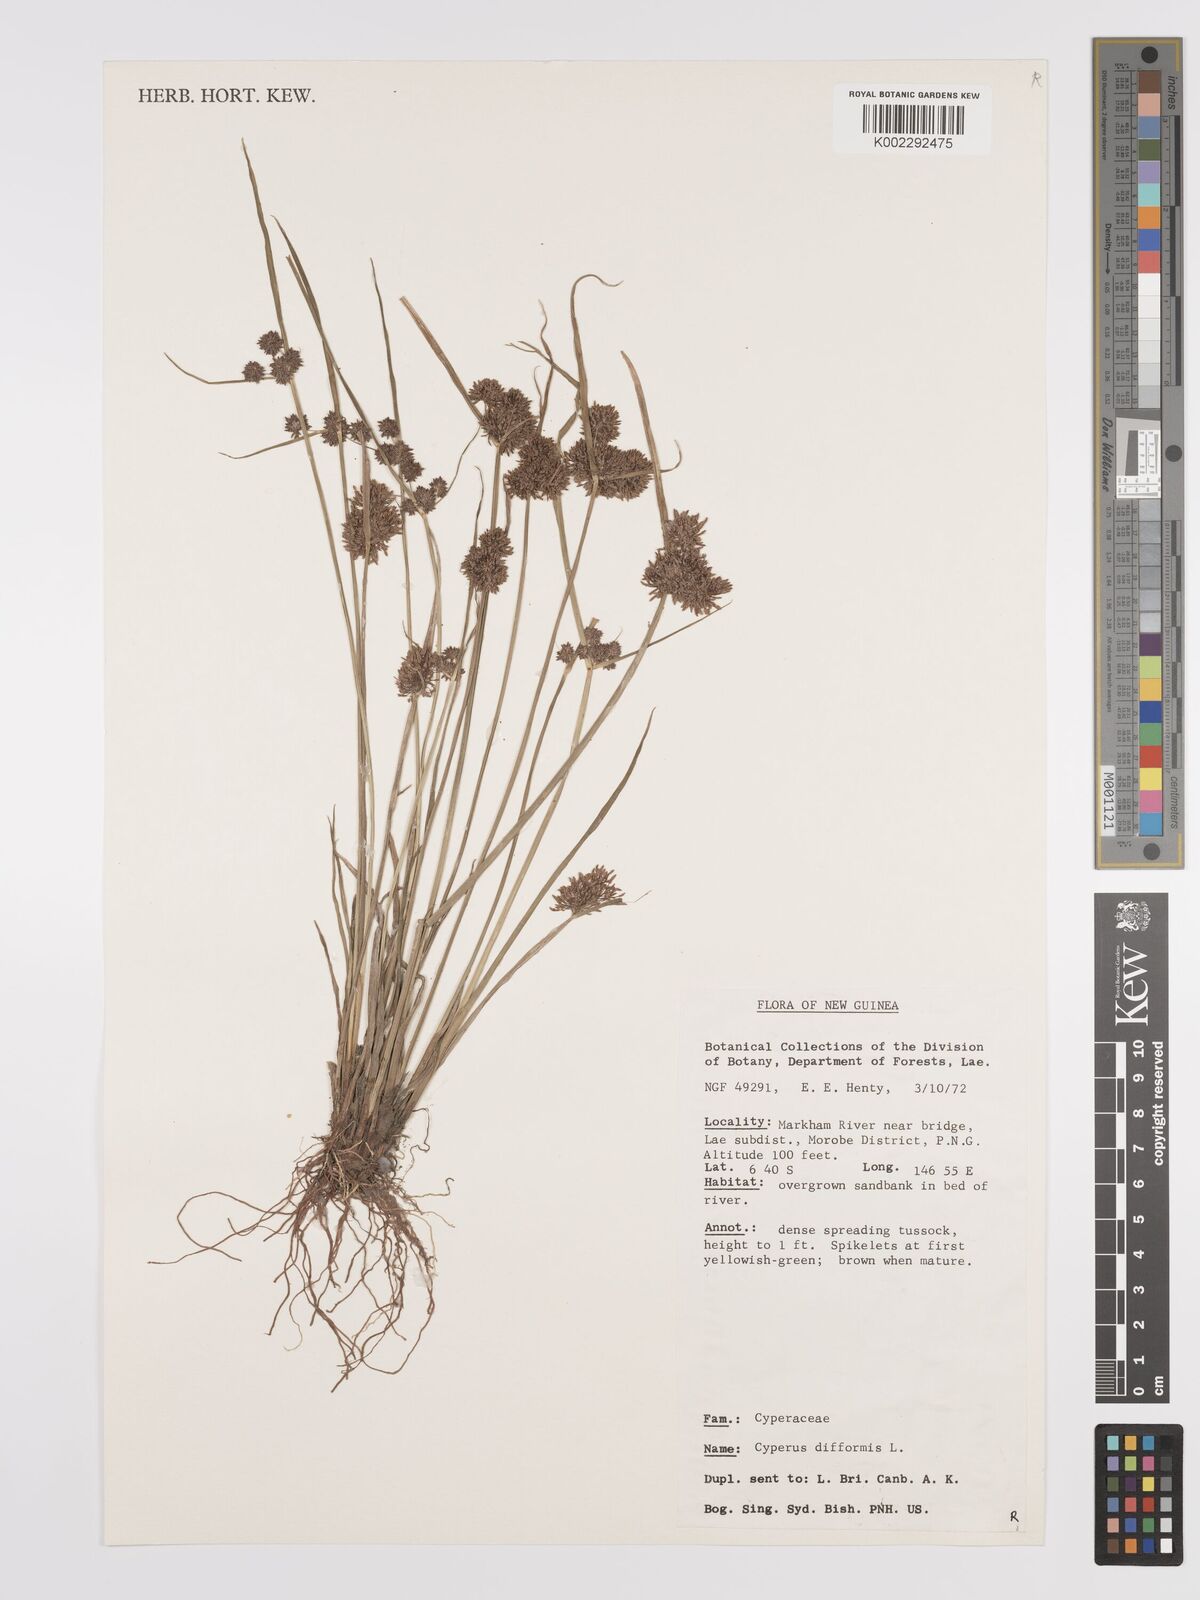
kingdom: Plantae
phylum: Tracheophyta
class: Liliopsida
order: Poales
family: Cyperaceae
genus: Cyperus
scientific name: Cyperus difformis
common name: Variable flatsedge
